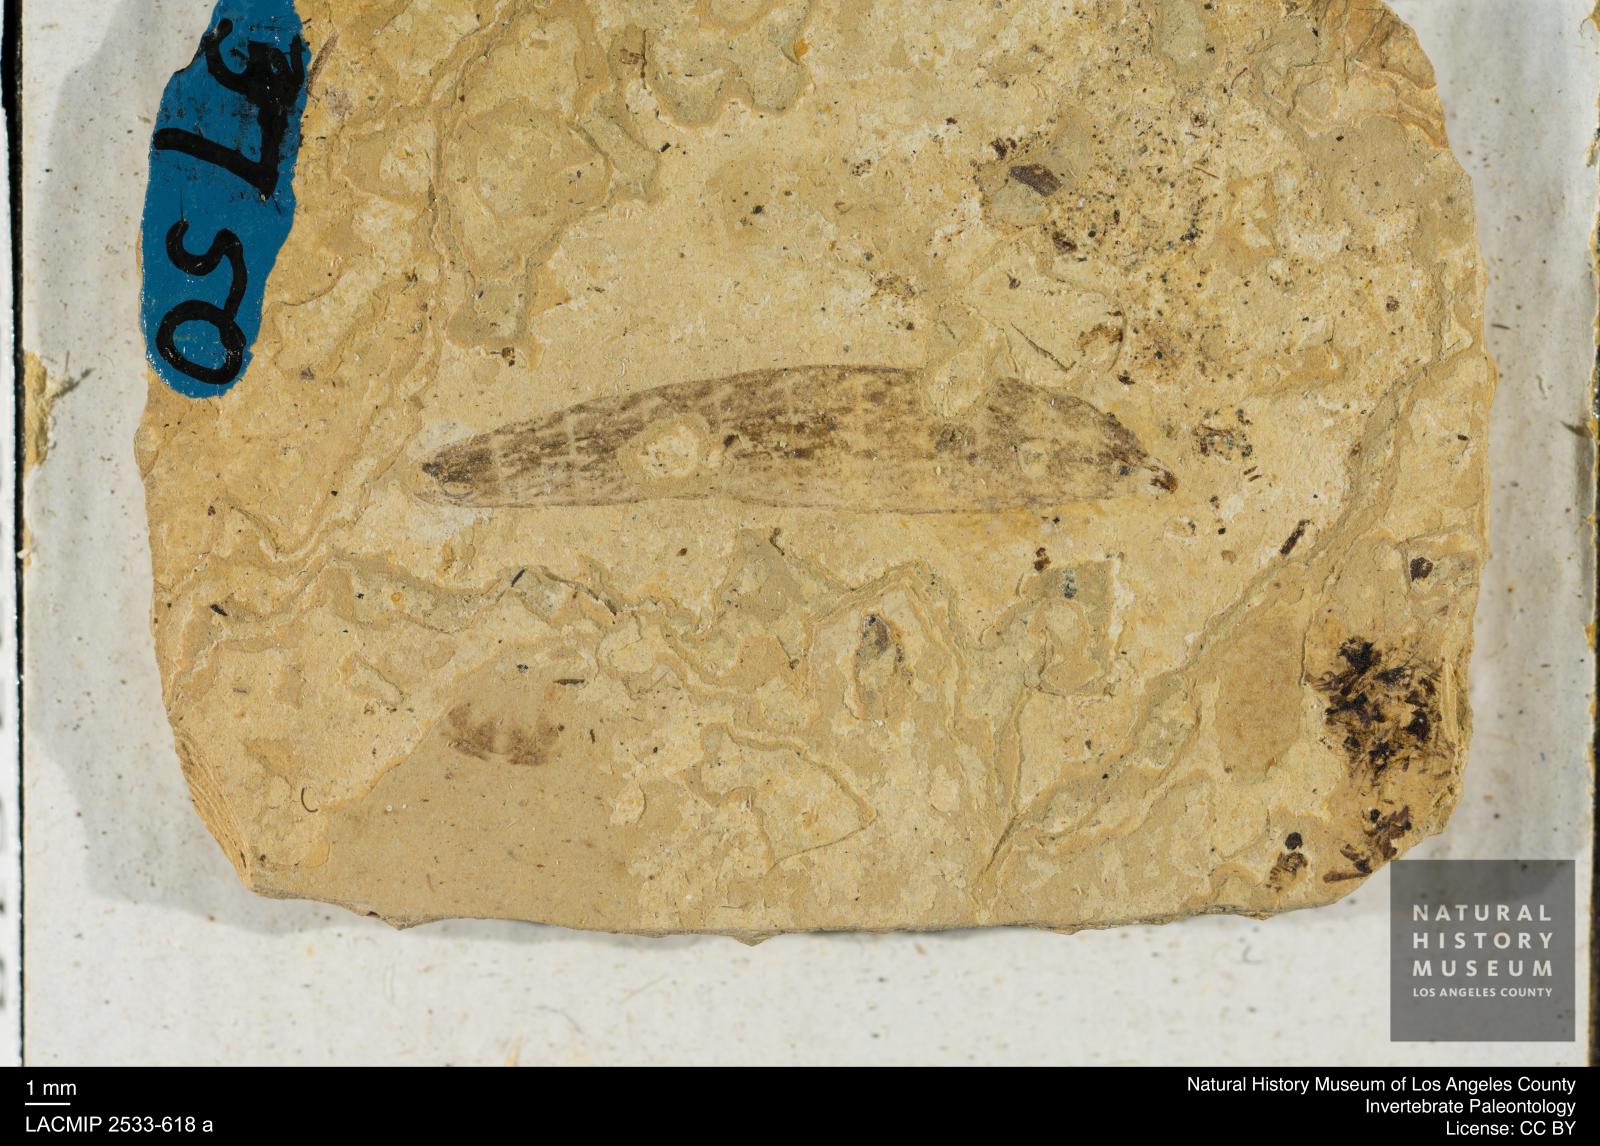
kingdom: Animalia
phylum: Arthropoda
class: Insecta
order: Diptera
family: Stratiomyidae
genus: Odontomyia
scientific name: Odontomyia
